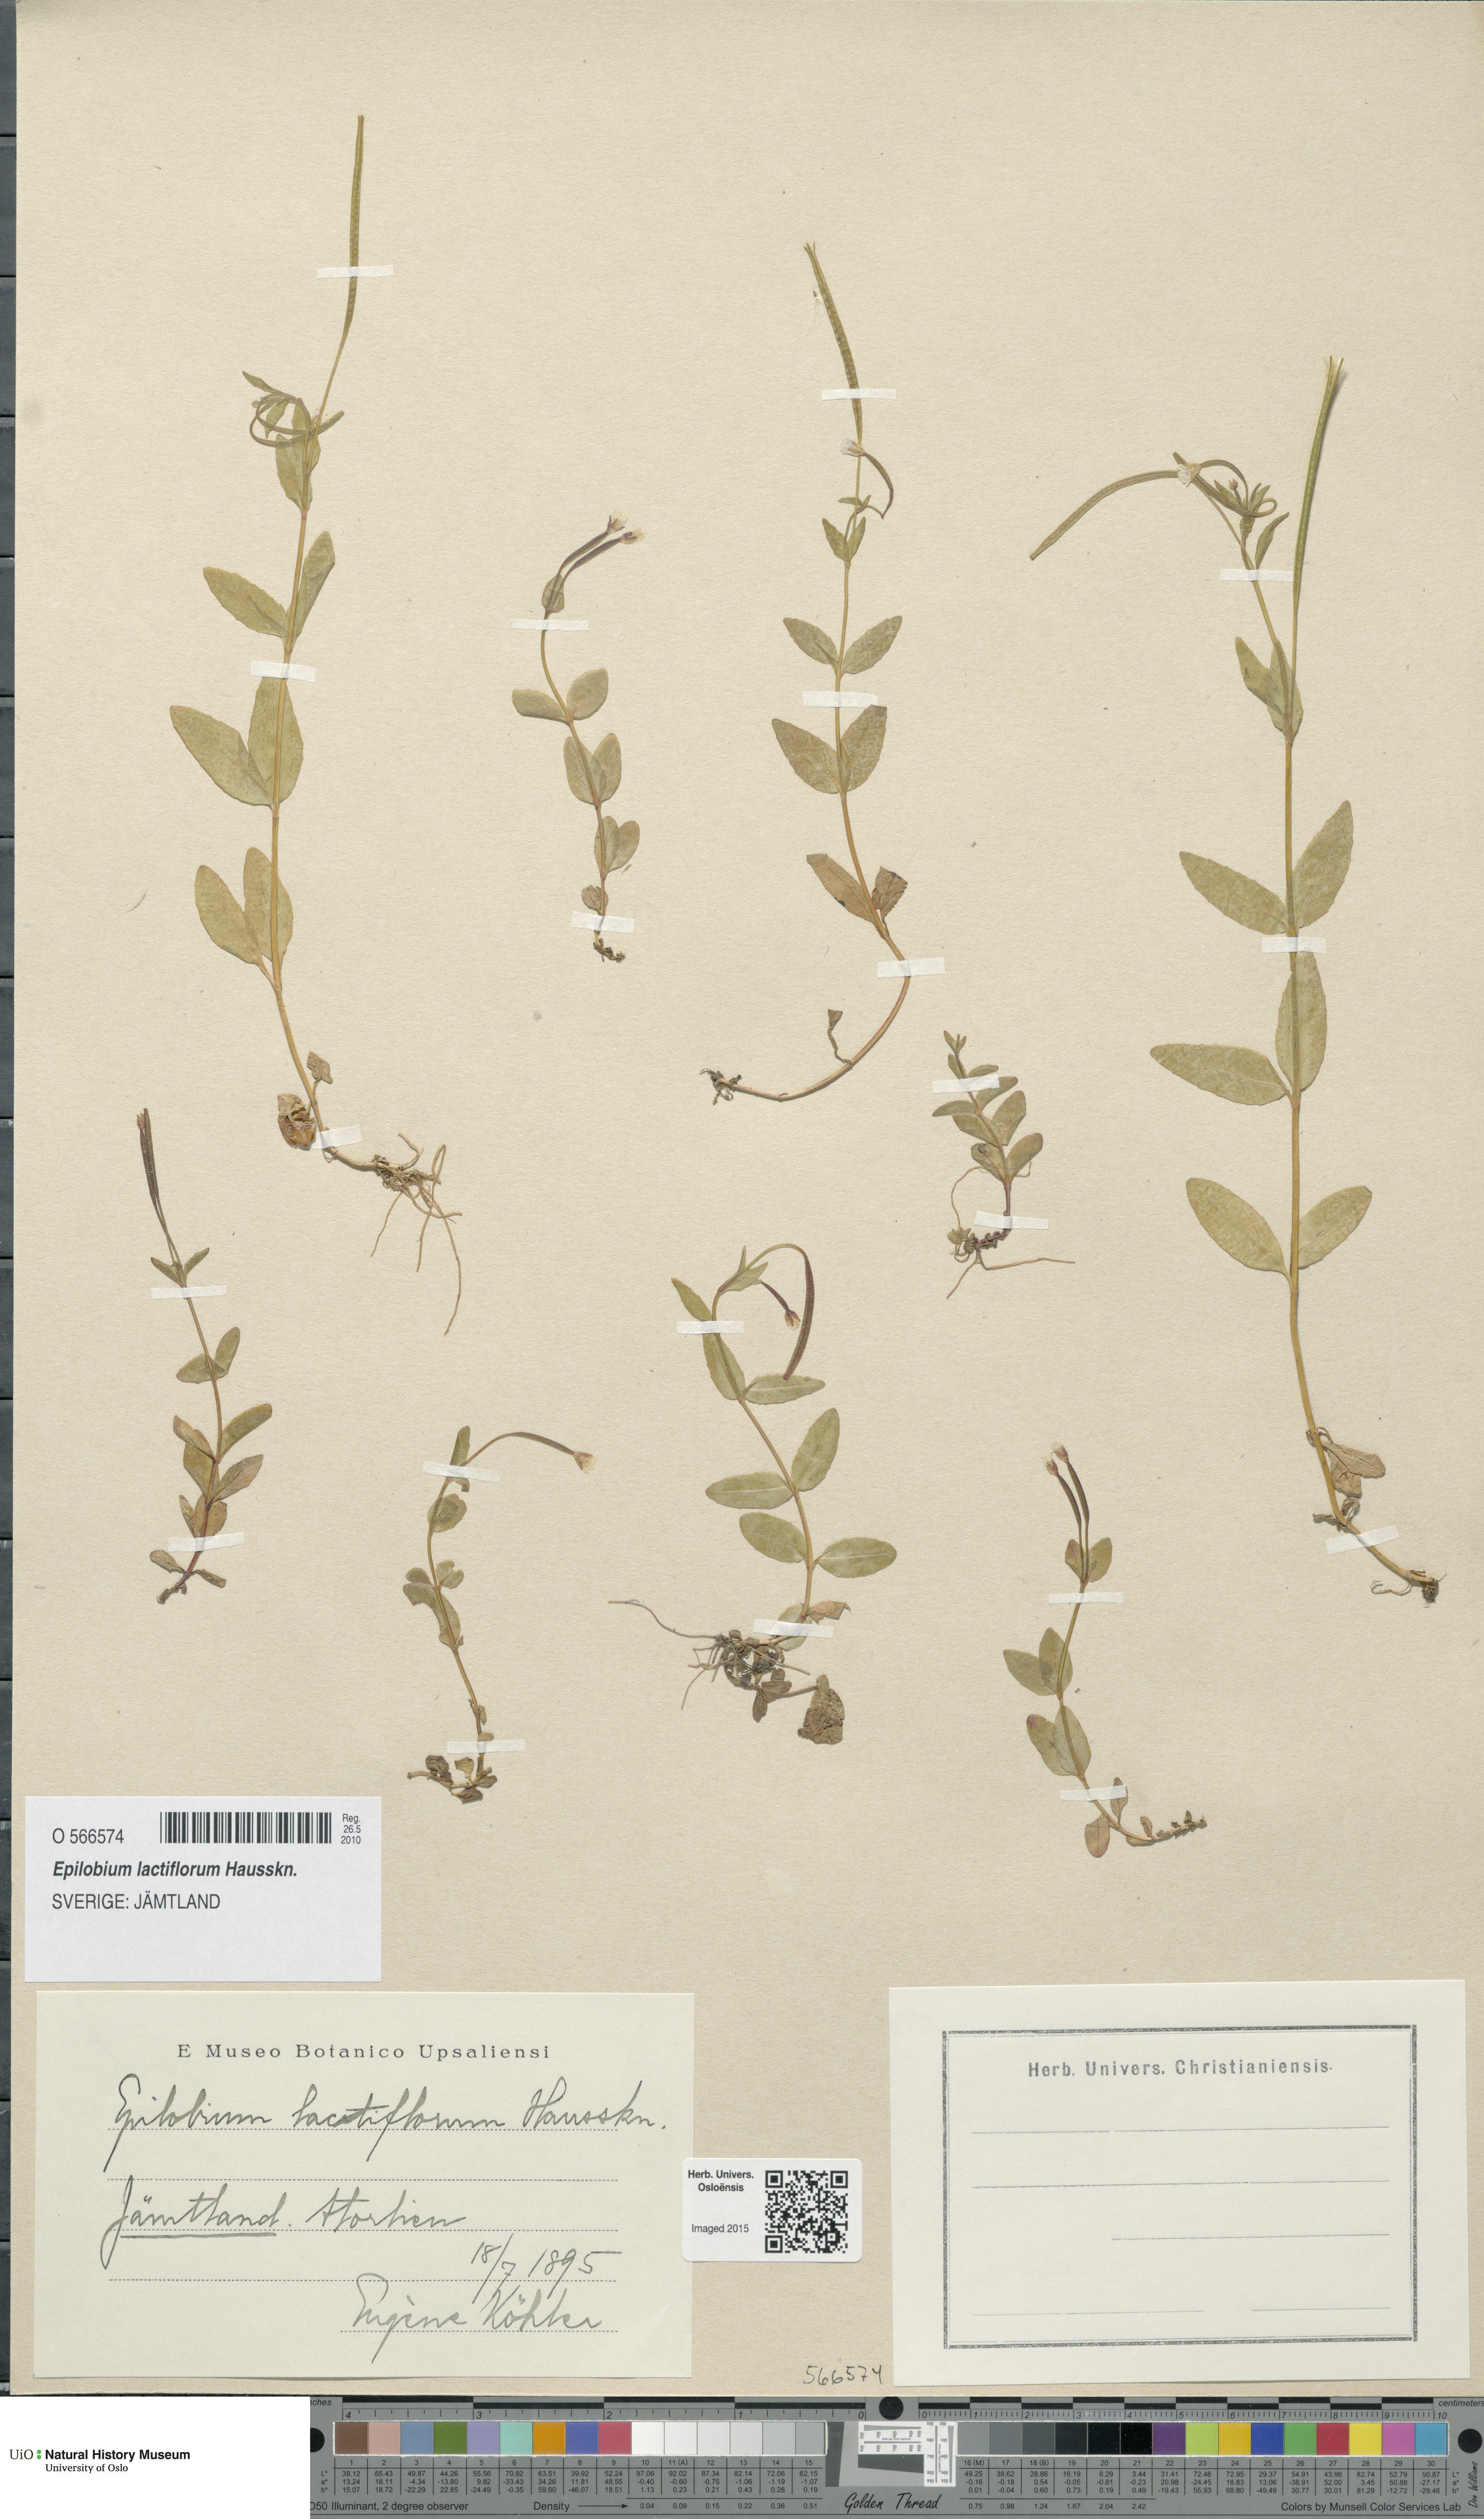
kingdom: Plantae
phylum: Tracheophyta
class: Magnoliopsida
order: Myrtales
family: Onagraceae
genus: Epilobium
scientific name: Epilobium lactiflorum
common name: Milkflower willowherb
